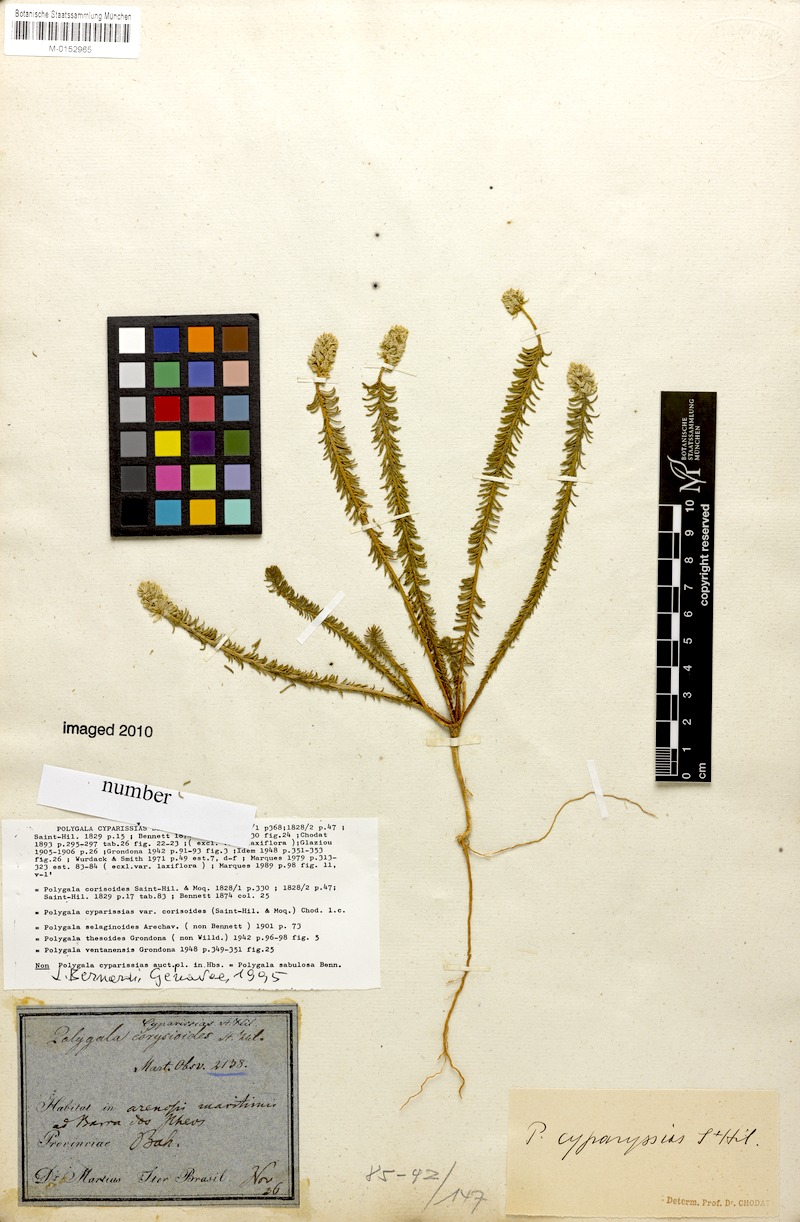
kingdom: Plantae
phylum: Tracheophyta
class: Magnoliopsida
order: Fabales
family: Polygalaceae
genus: Polygala
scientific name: Polygala cyparissias
